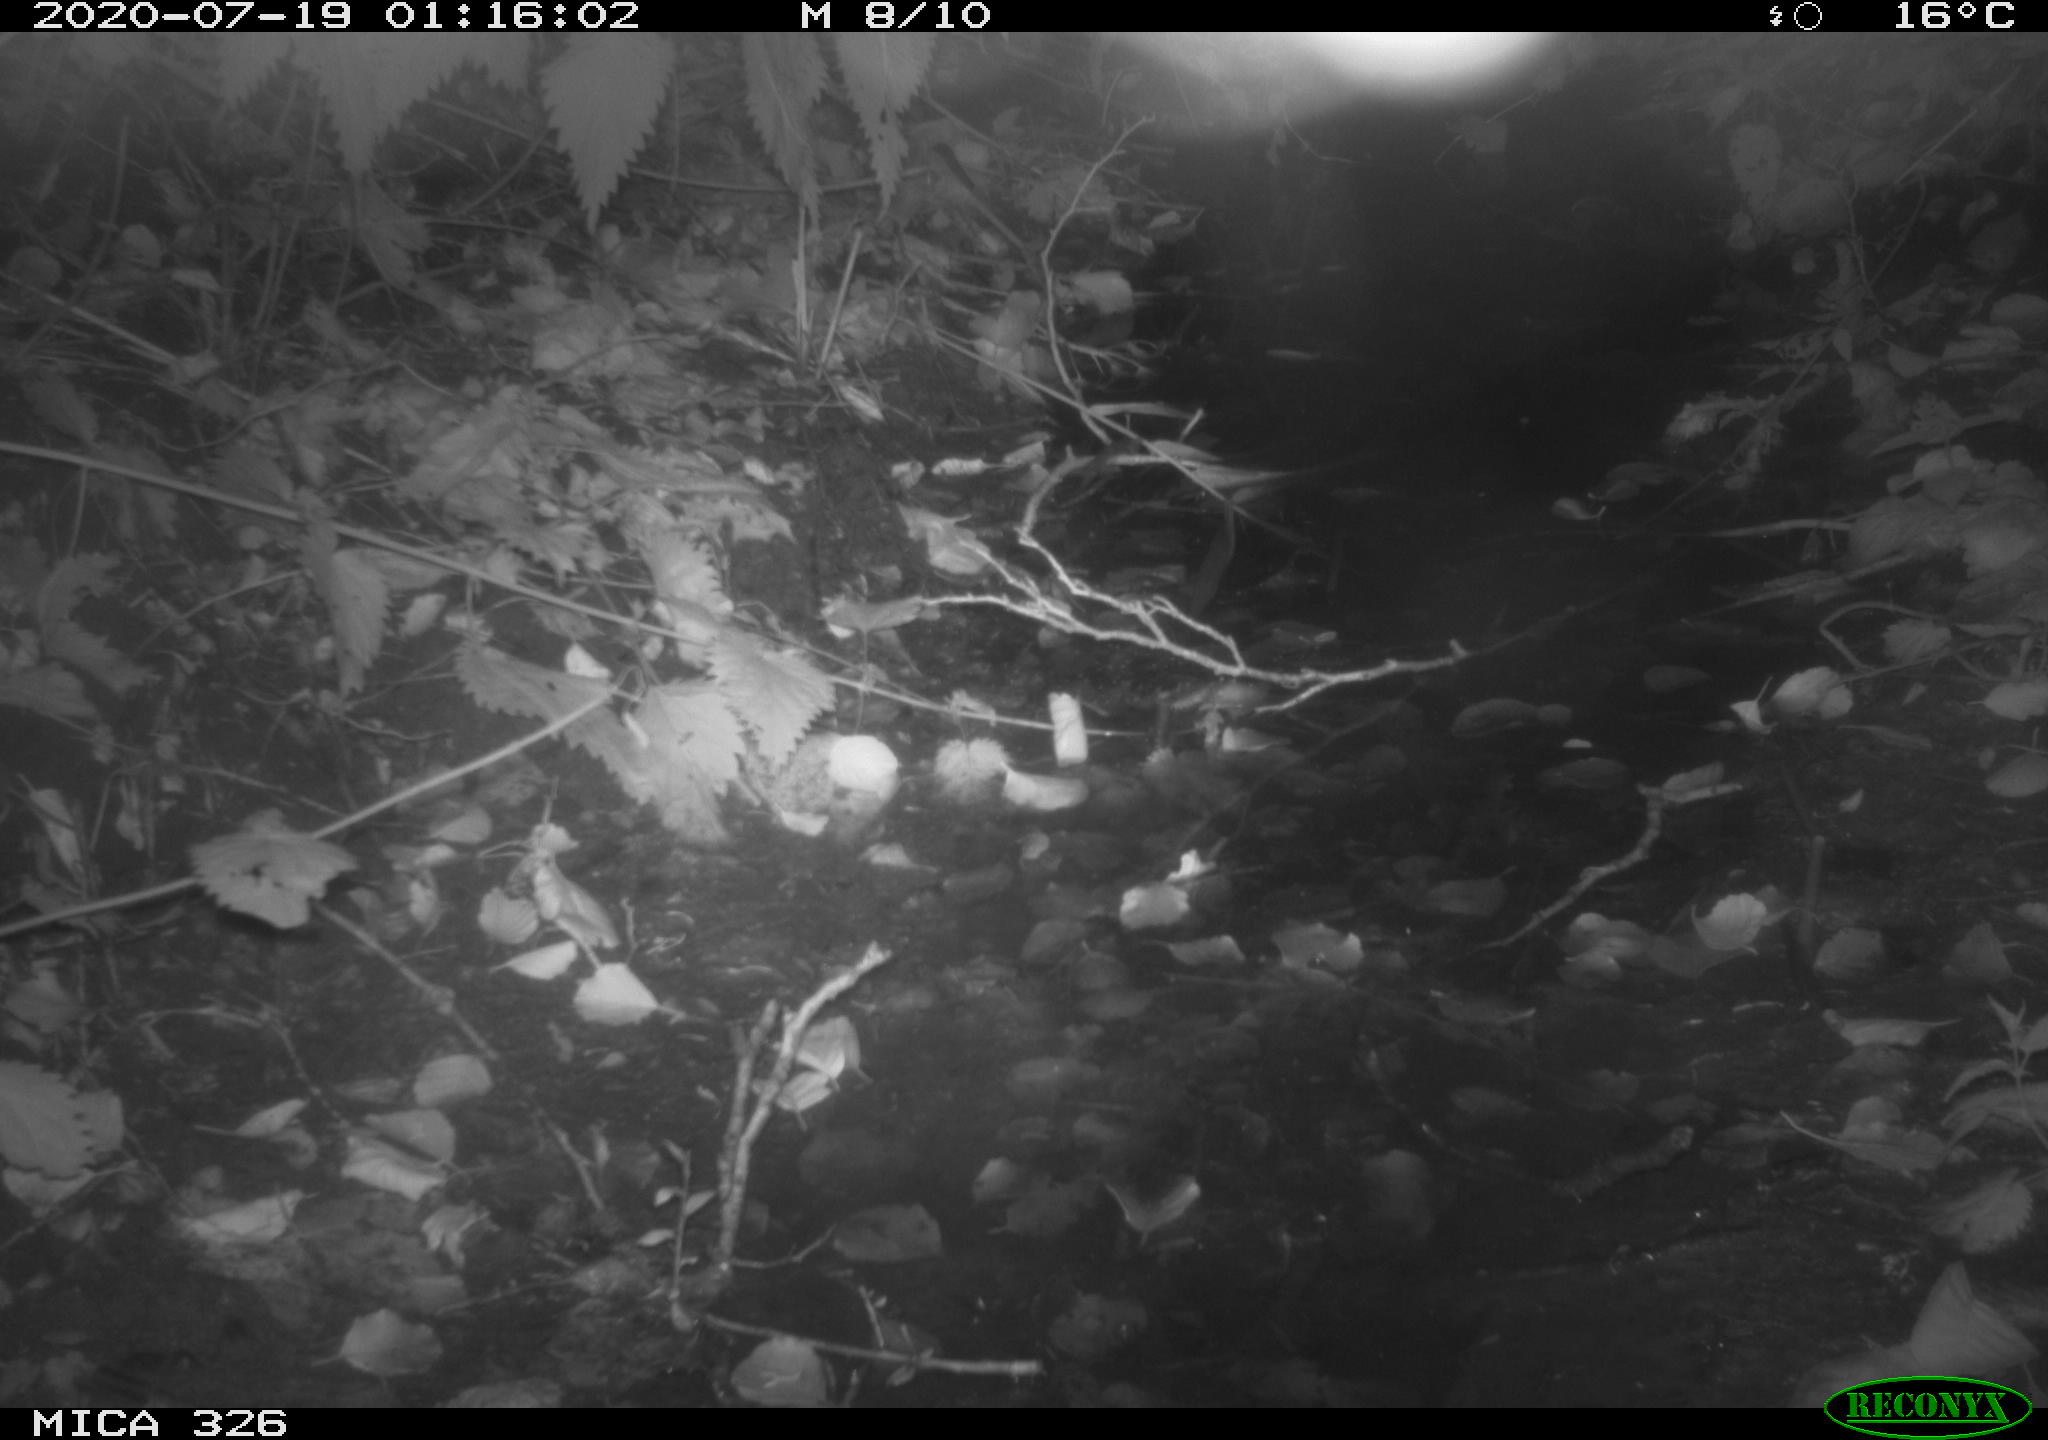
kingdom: Animalia
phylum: Chordata
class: Mammalia
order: Rodentia
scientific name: Rodentia
